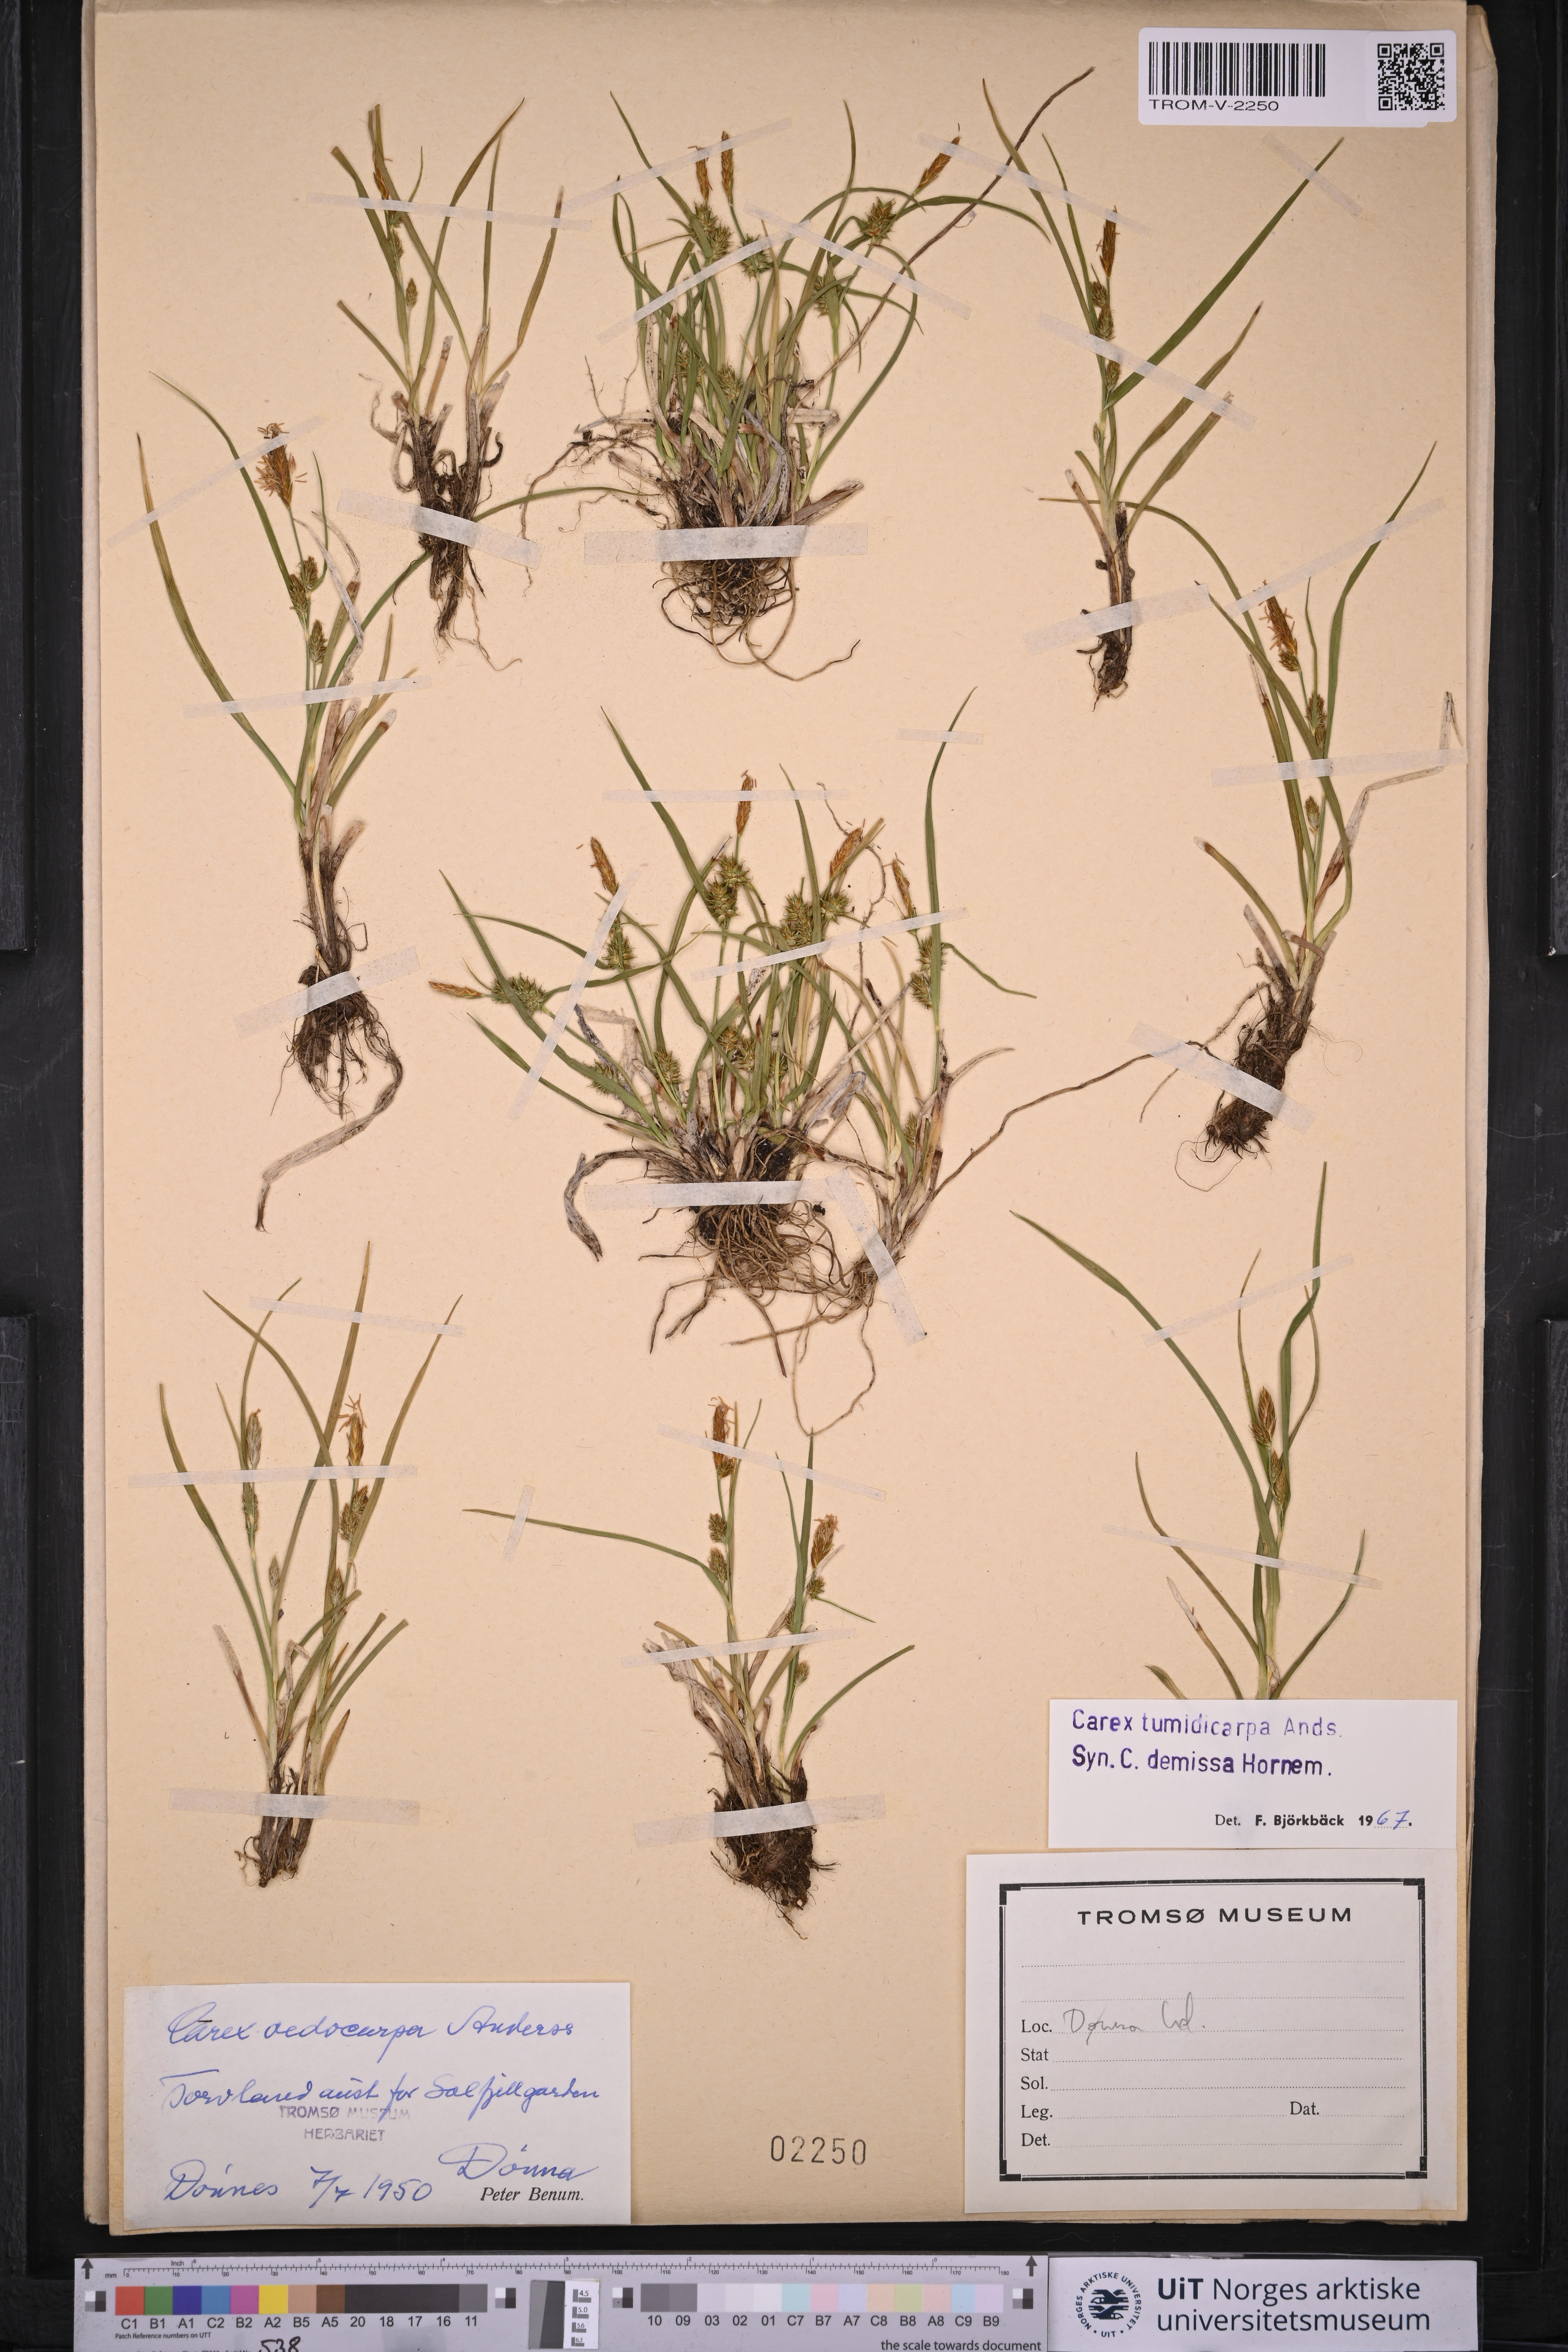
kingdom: Plantae
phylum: Tracheophyta
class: Liliopsida
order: Poales
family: Cyperaceae
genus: Carex
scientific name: Carex demissa
